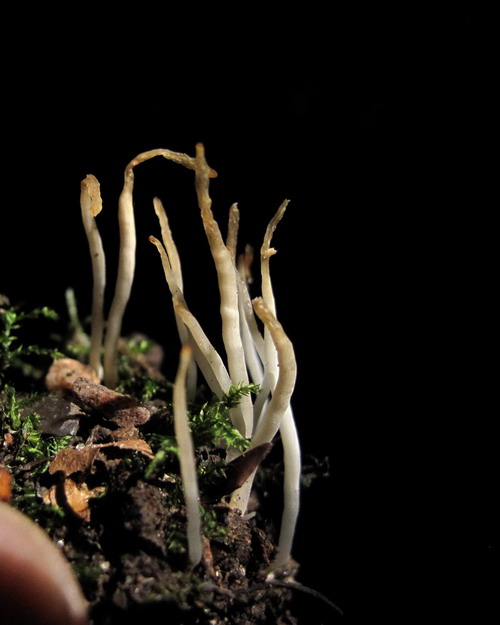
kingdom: Fungi
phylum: Basidiomycota
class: Agaricomycetes
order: Agaricales
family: Clavariaceae
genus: Clavaria
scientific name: Clavaria falcata
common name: hvid køllesvamp
